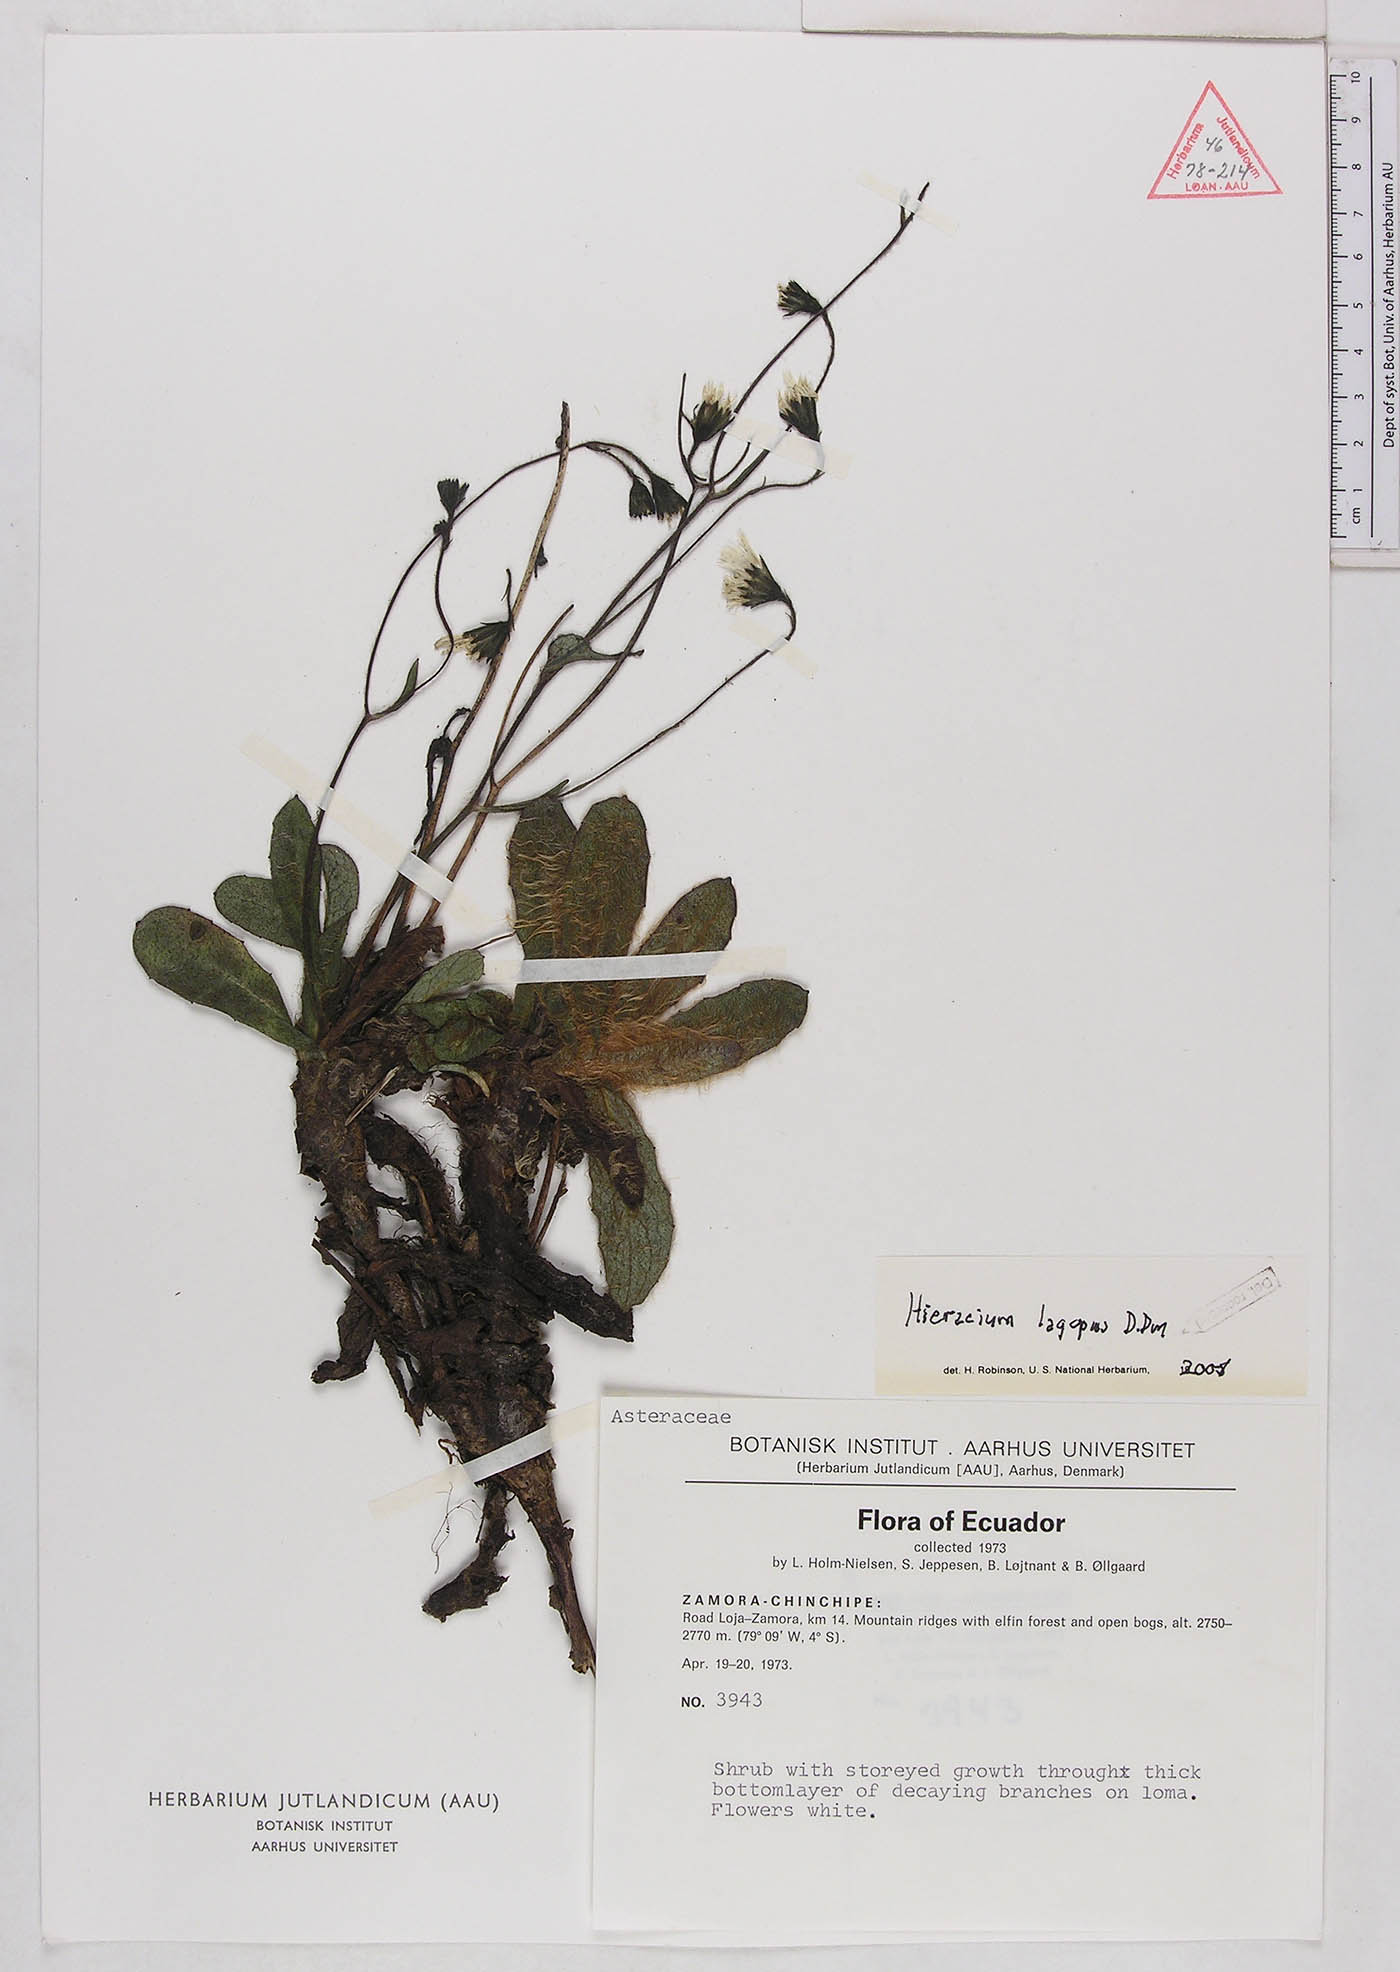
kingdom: Plantae
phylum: Tracheophyta
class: Magnoliopsida
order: Asterales
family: Asteraceae
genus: Hieracium
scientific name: Hieracium lagopus
